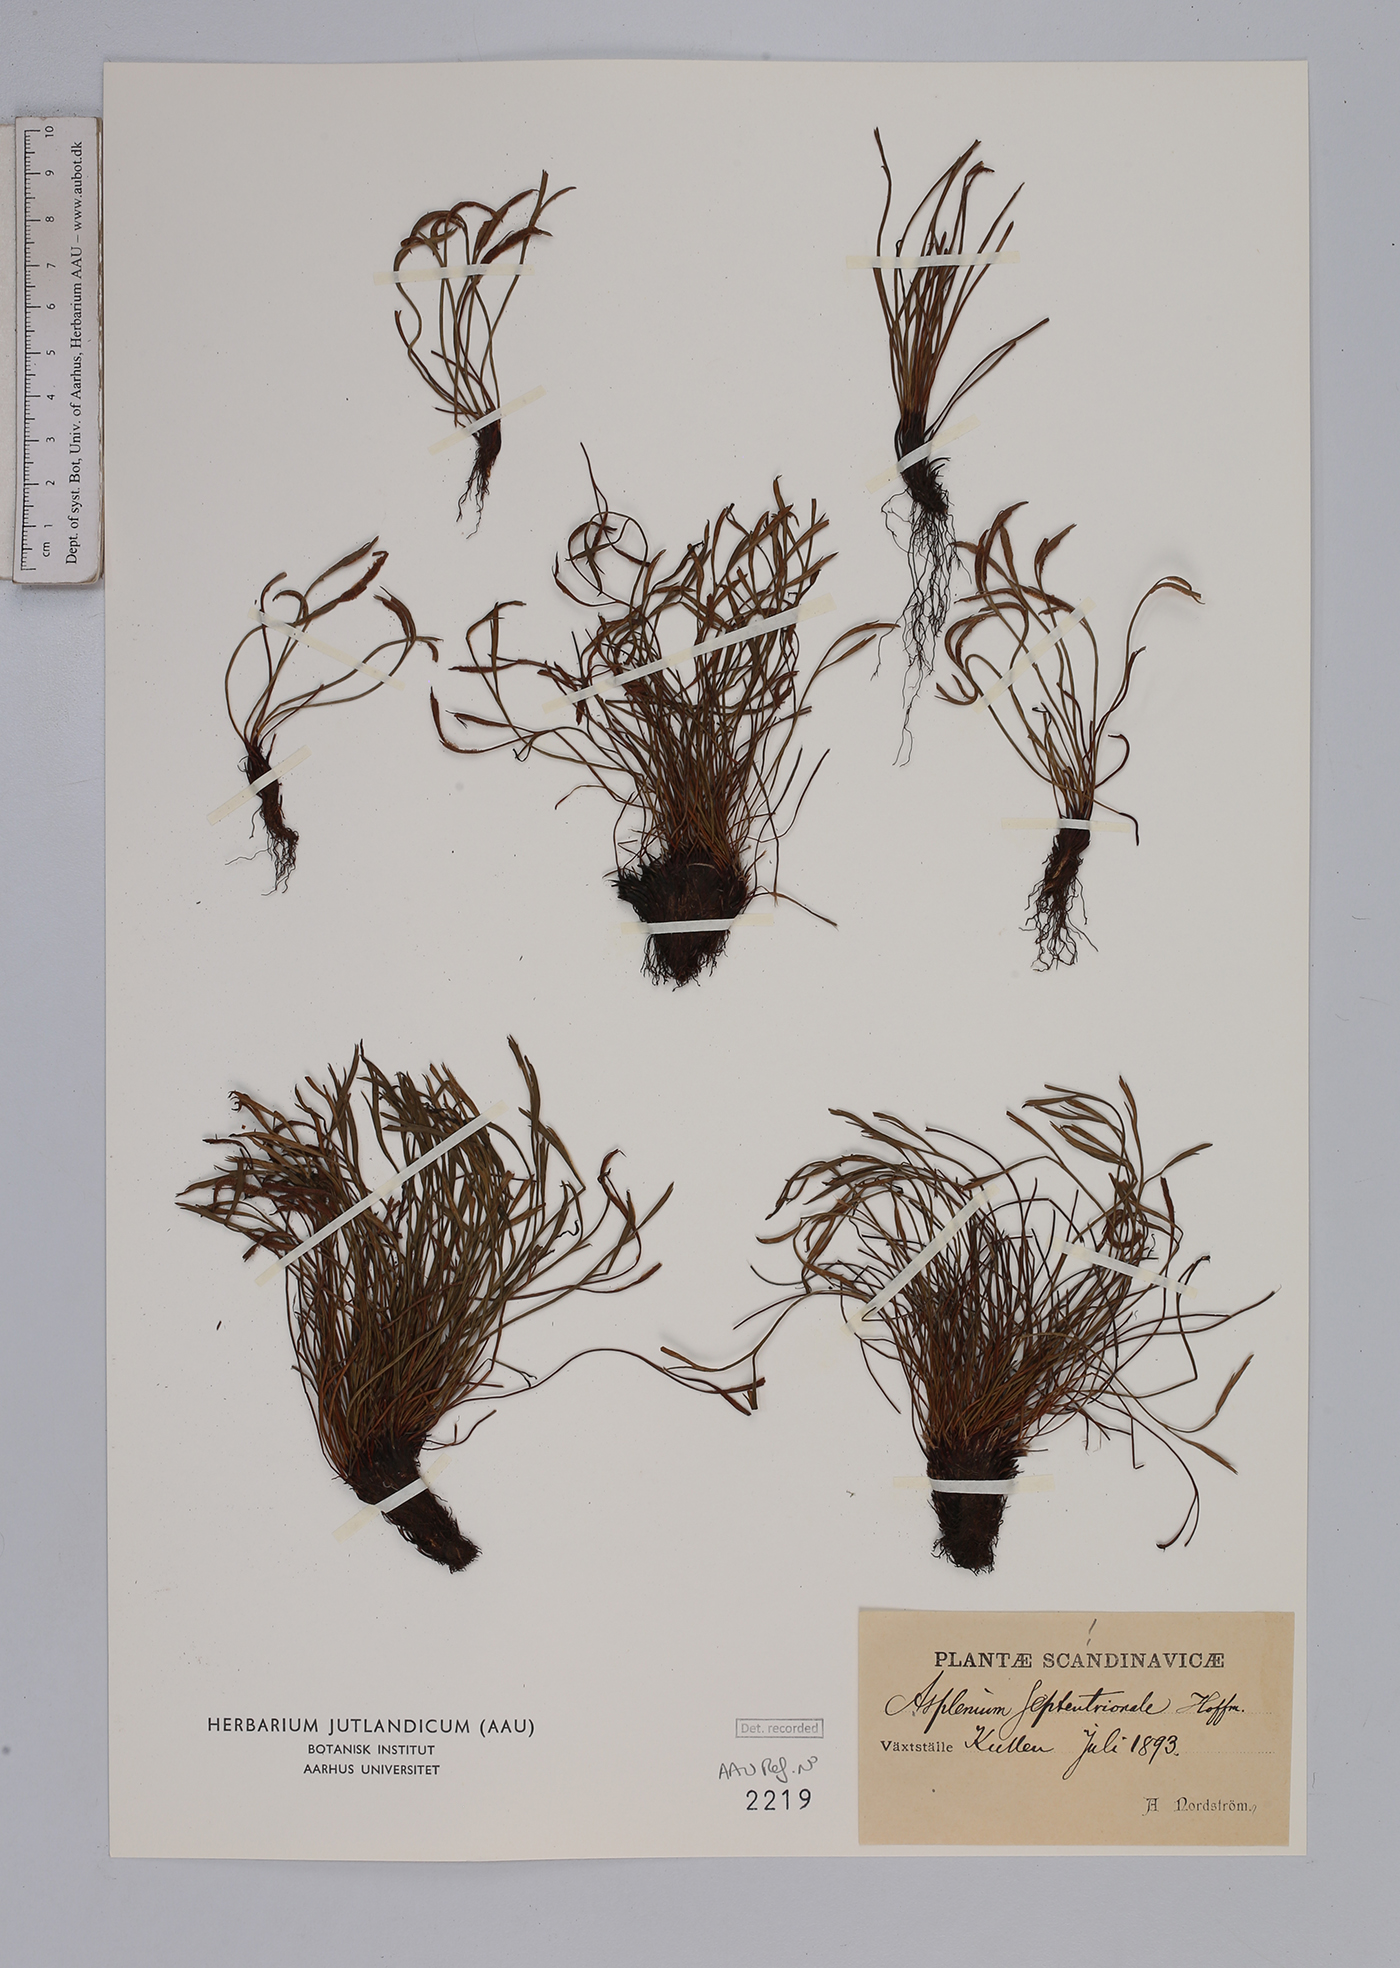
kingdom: Plantae
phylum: Tracheophyta
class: Polypodiopsida
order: Polypodiales
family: Aspleniaceae
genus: Asplenium
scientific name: Asplenium septentrionale
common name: Forked spleenwort
